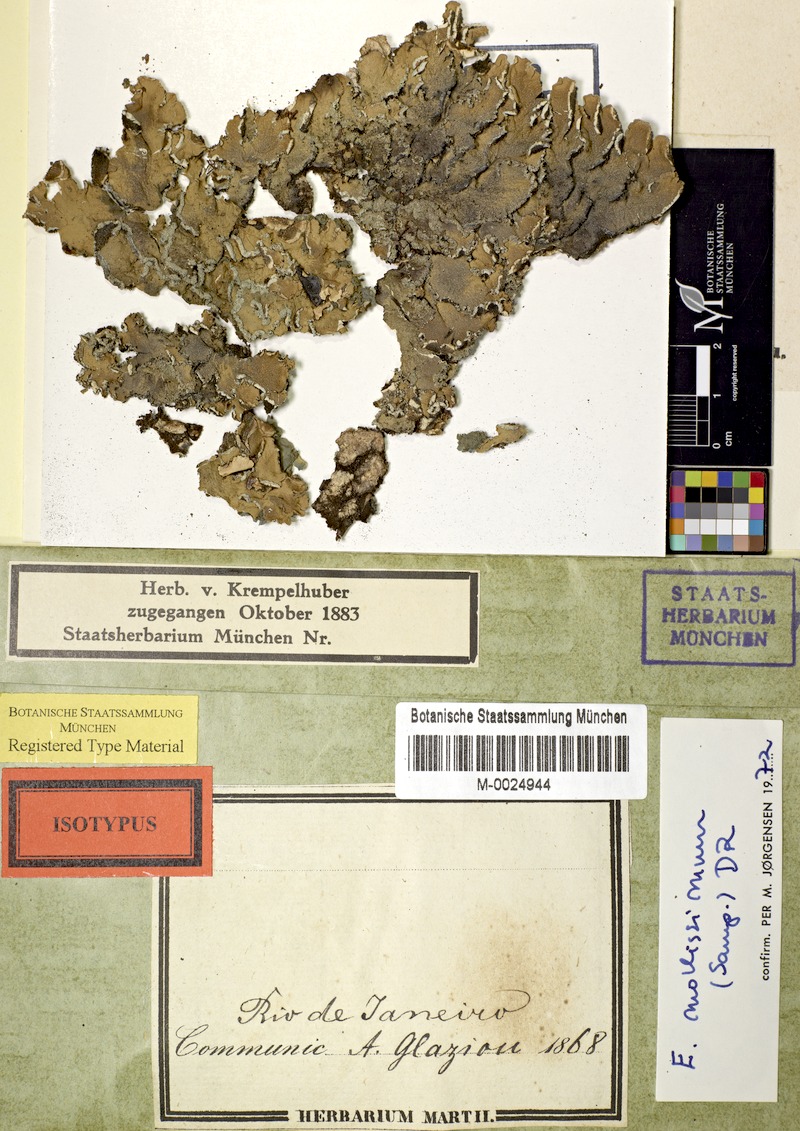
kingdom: Fungi
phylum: Ascomycota
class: Lecanoromycetes
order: Peltigerales
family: Pannariaceae
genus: Erioderma
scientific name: Erioderma mollissimum
